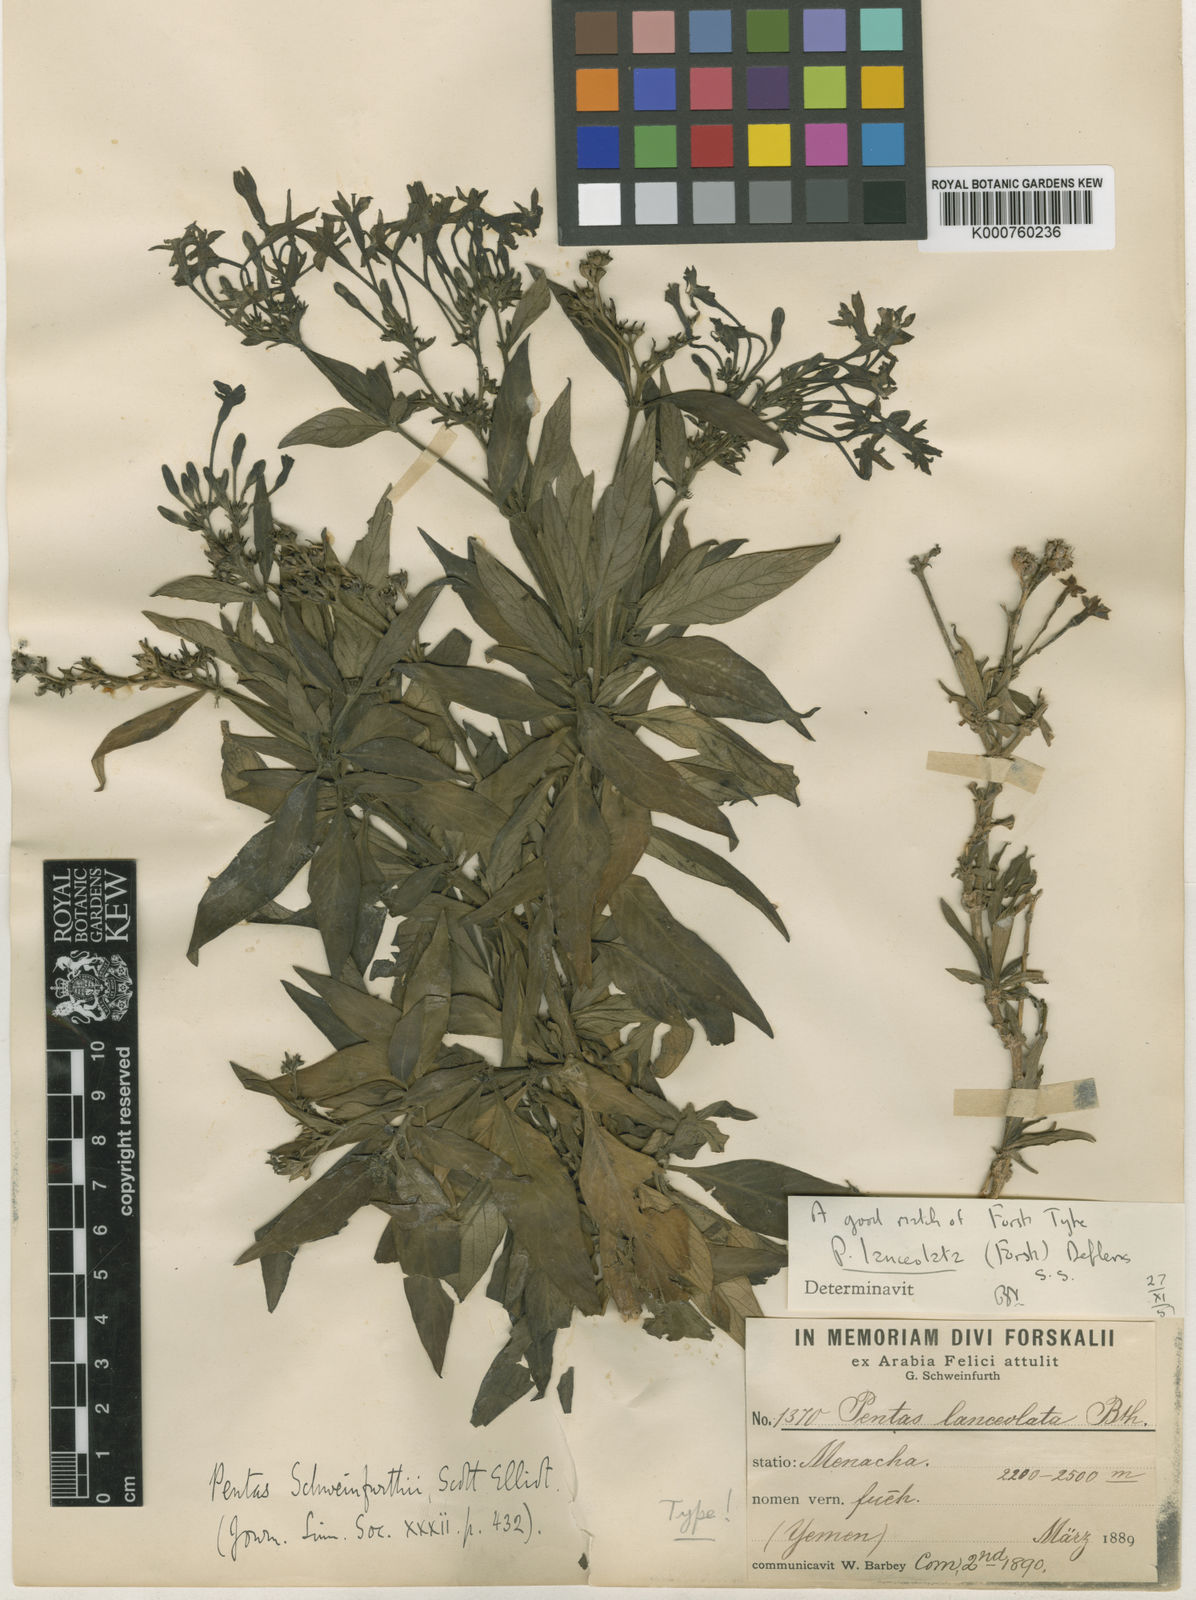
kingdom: Plantae
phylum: Tracheophyta
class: Magnoliopsida
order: Gentianales
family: Rubiaceae
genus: Pentas
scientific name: Pentas lanceolata
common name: Egyptian starcluster
